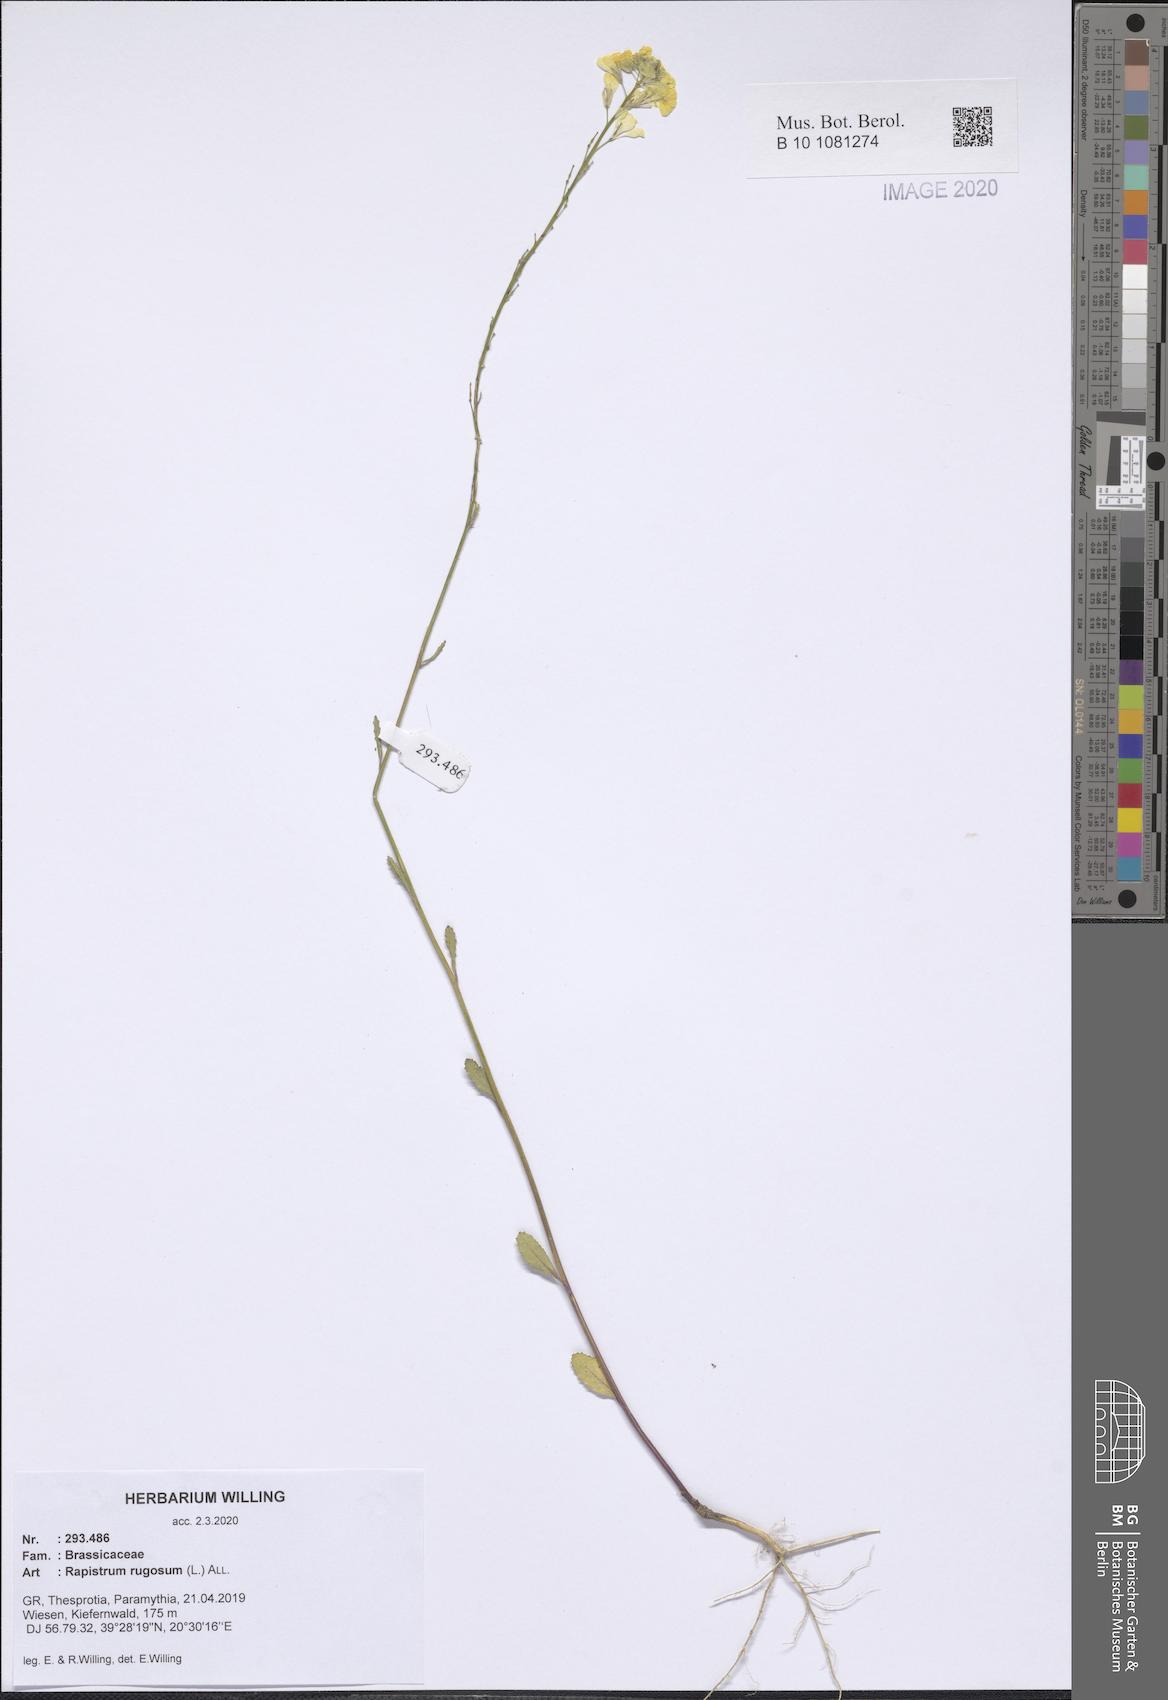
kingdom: Plantae
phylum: Tracheophyta
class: Magnoliopsida
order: Brassicales
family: Brassicaceae
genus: Rapistrum
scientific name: Rapistrum rugosum
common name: Annual bastardcabbage
